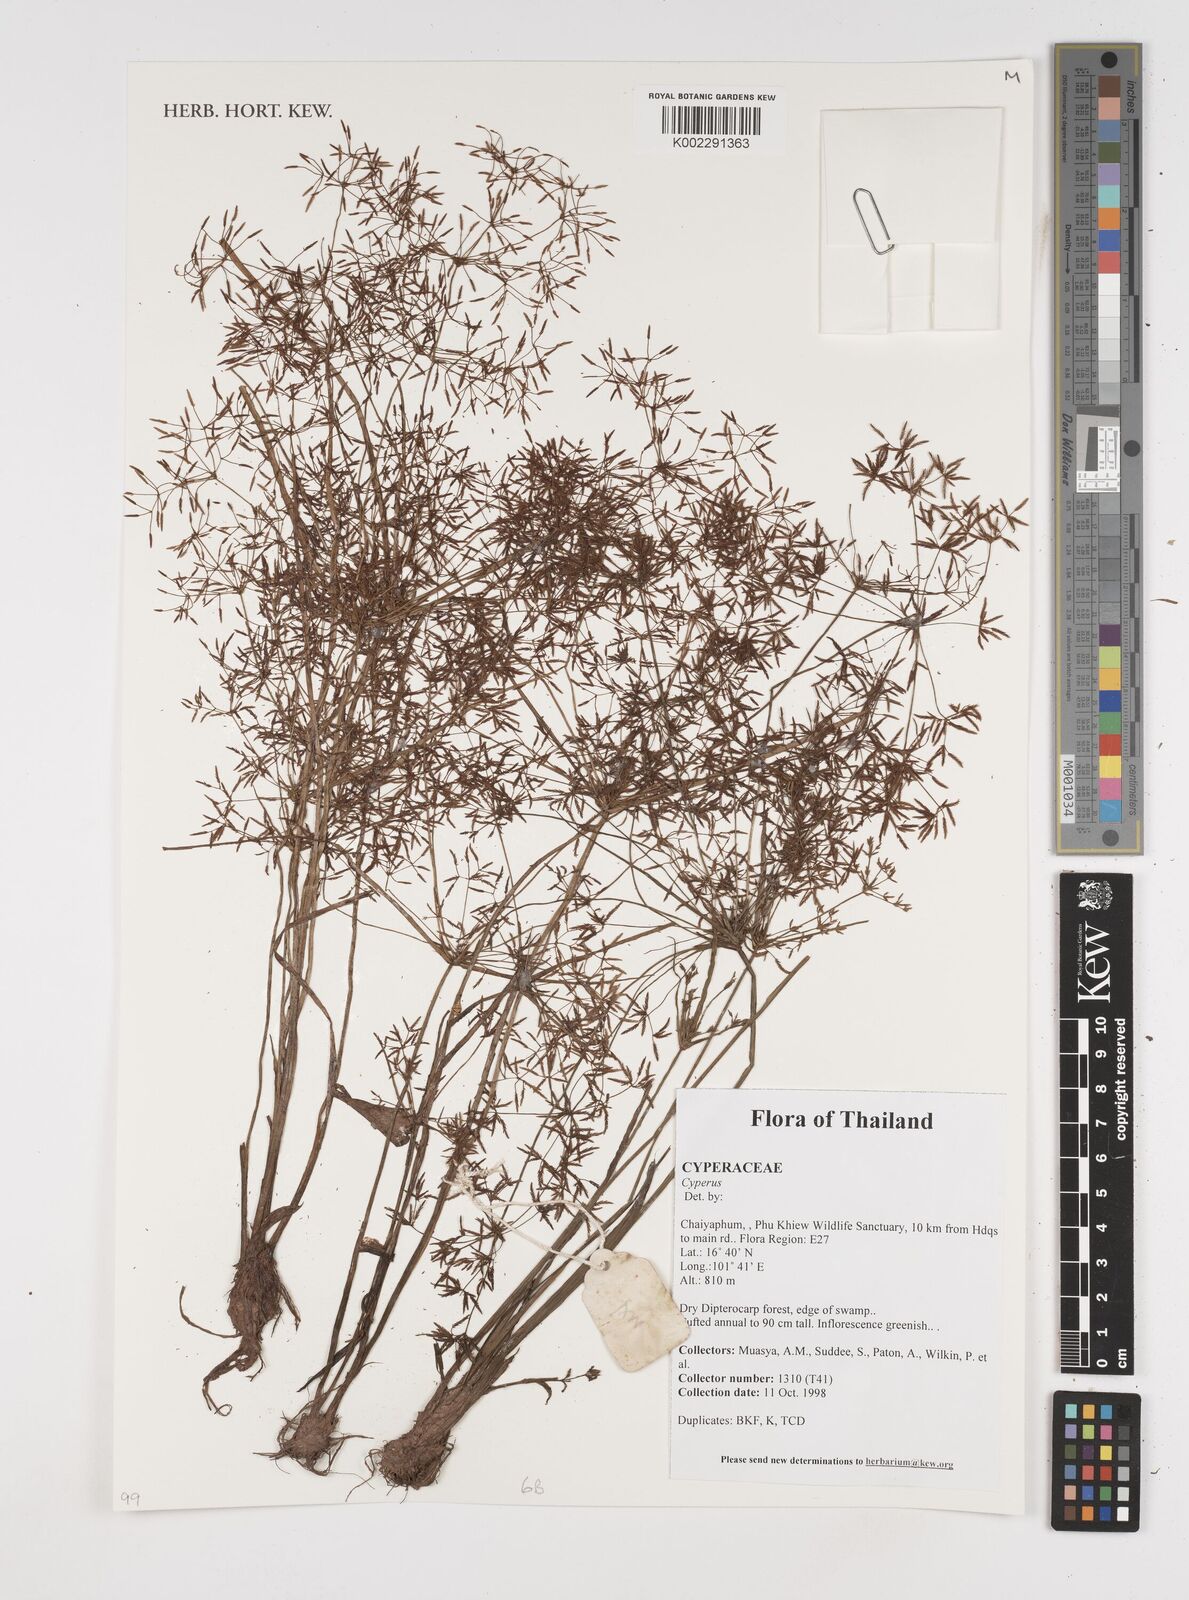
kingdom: Plantae
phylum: Tracheophyta
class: Liliopsida
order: Poales
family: Cyperaceae
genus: Cyperus
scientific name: Cyperus
